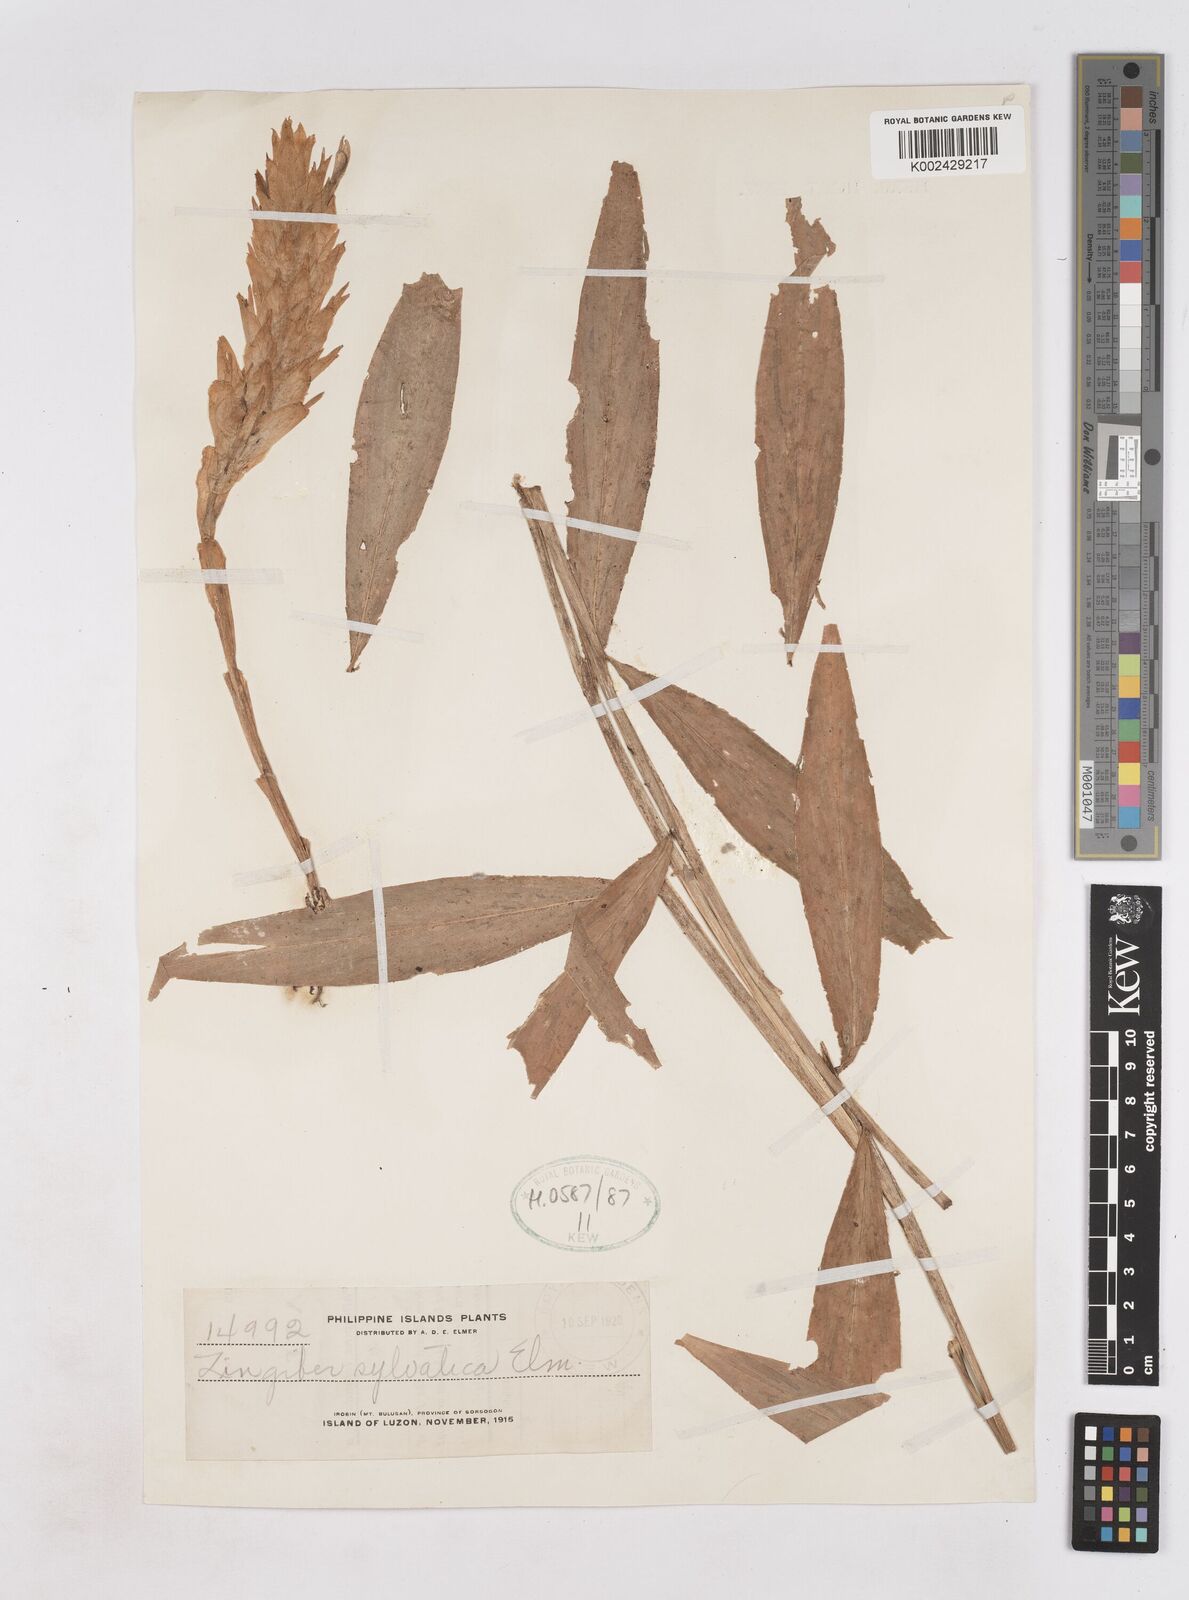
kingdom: Plantae
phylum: Tracheophyta
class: Liliopsida
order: Zingiberales
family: Zingiberaceae
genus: Zingiber
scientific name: Zingiber molle
